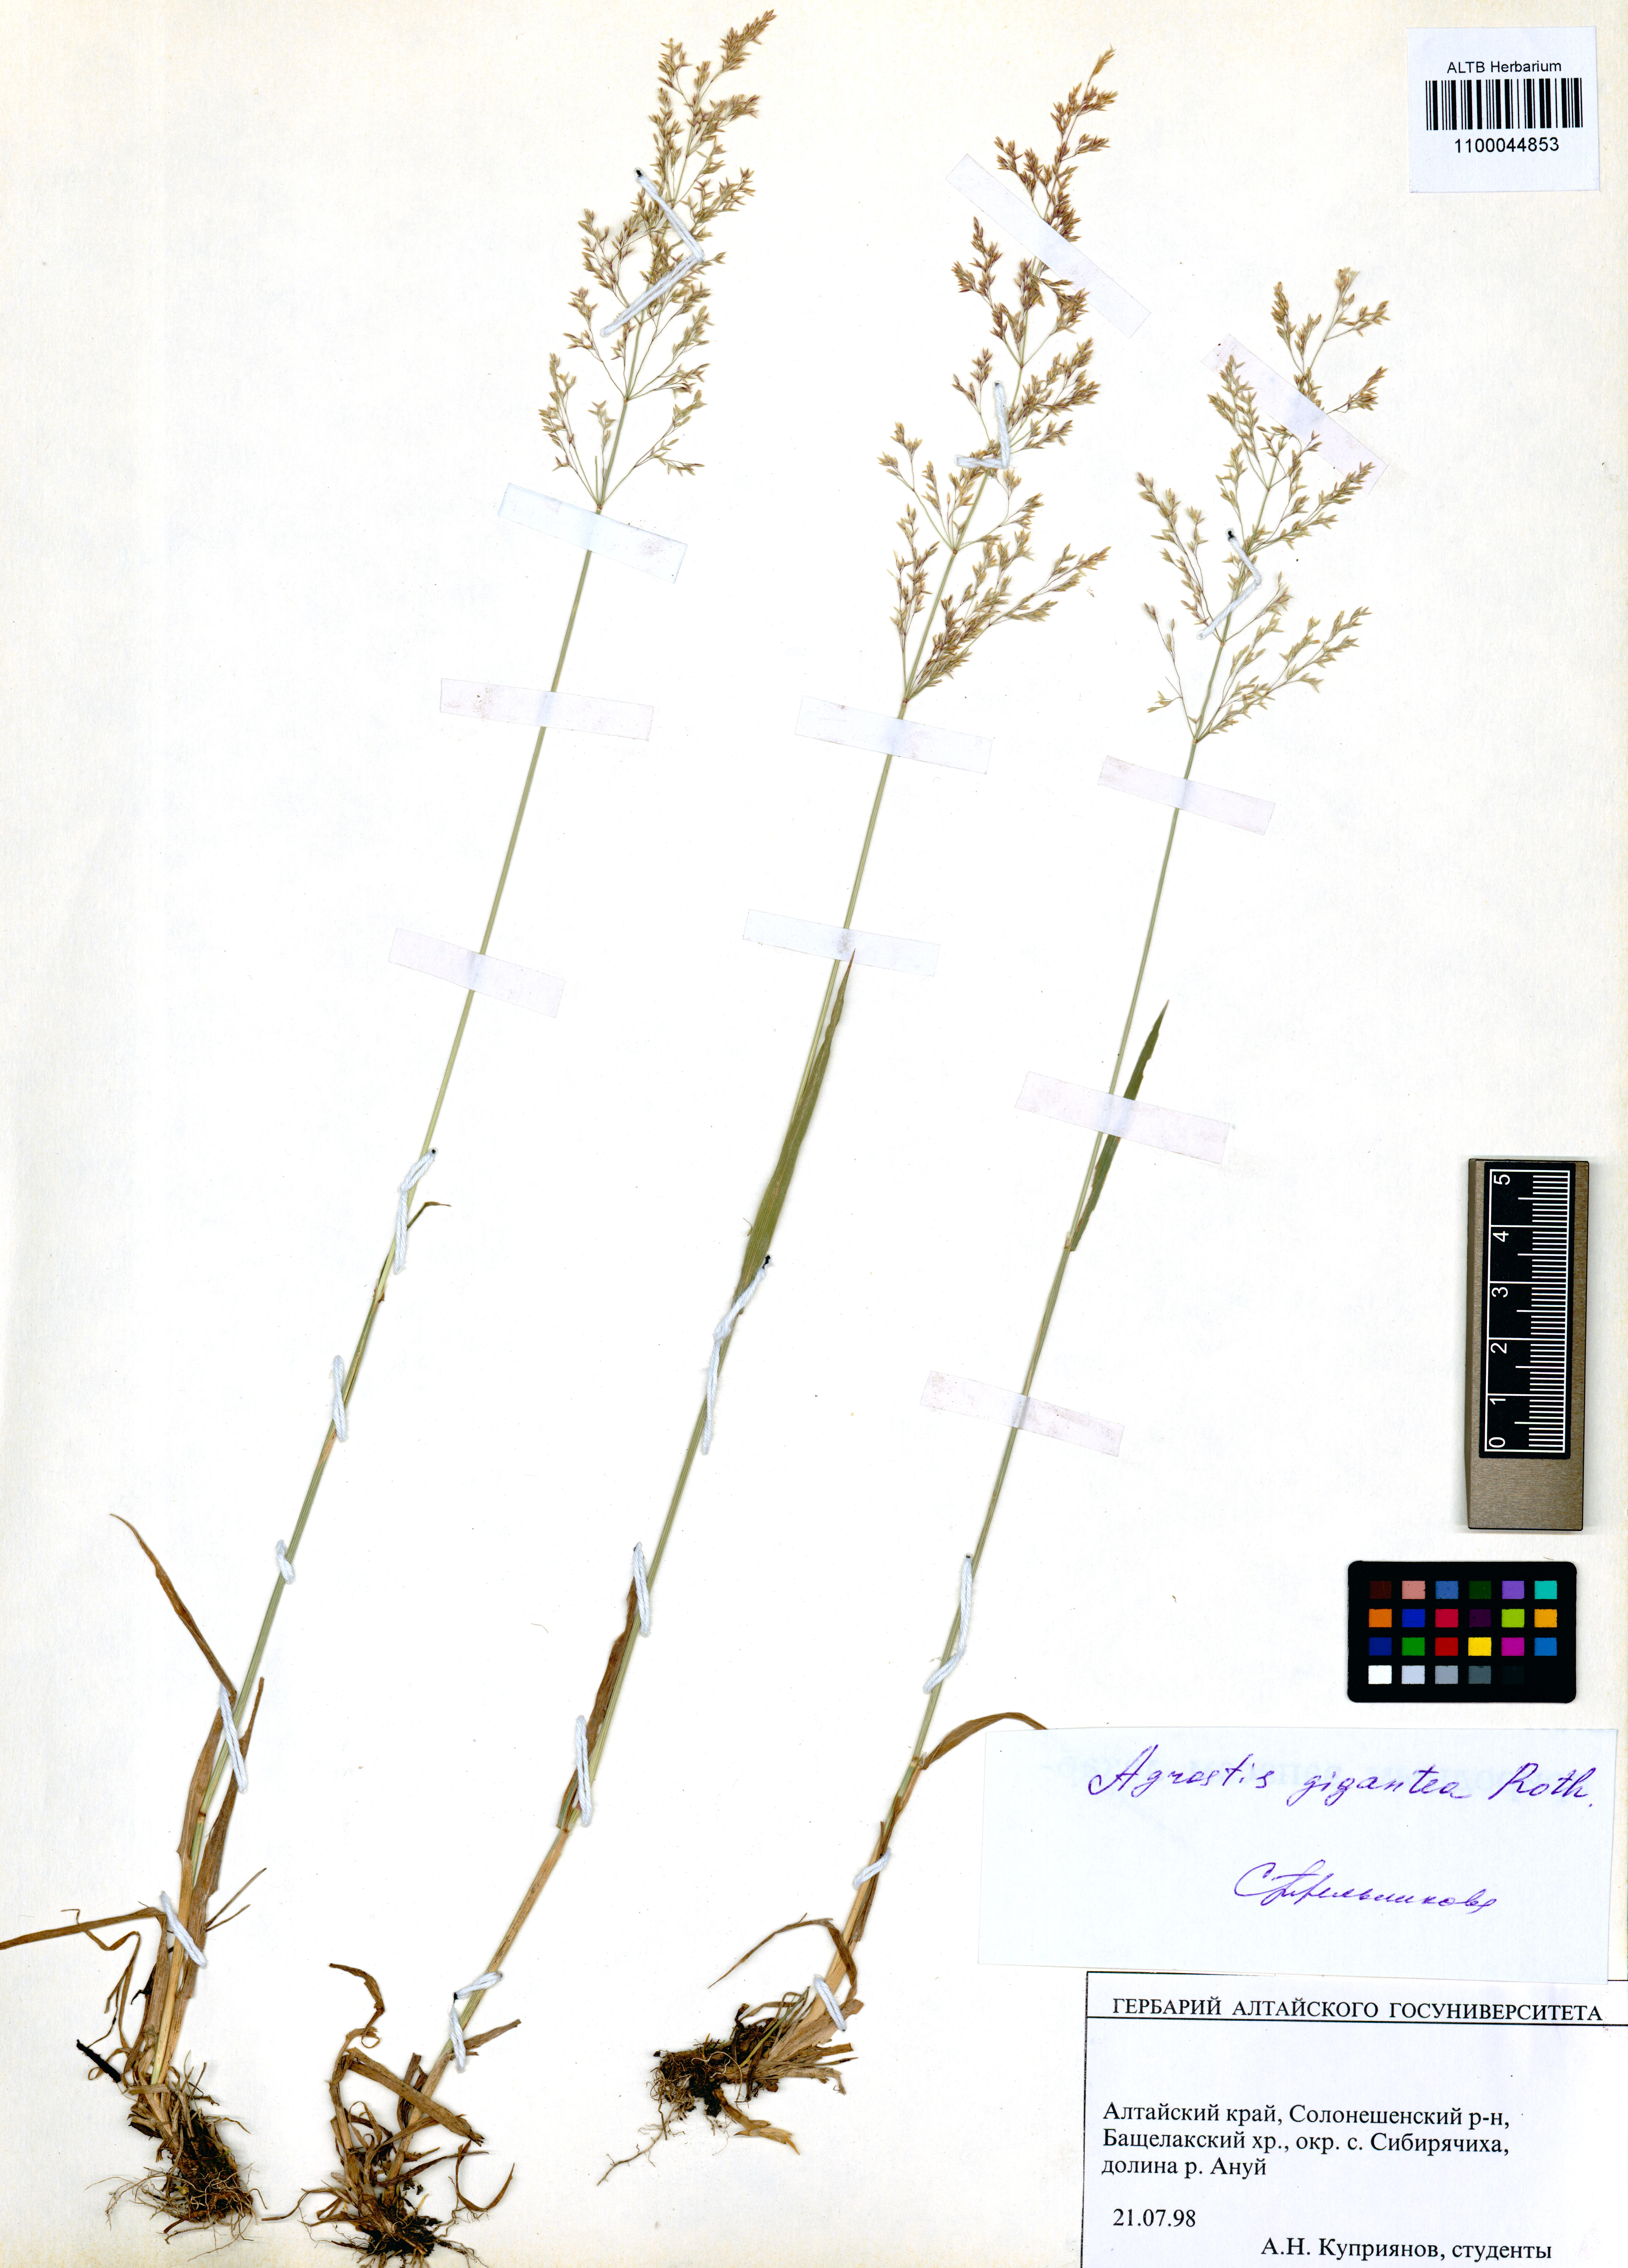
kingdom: Plantae
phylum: Tracheophyta
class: Liliopsida
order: Poales
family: Poaceae
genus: Agrostis
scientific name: Agrostis gigantea
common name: Black bent
